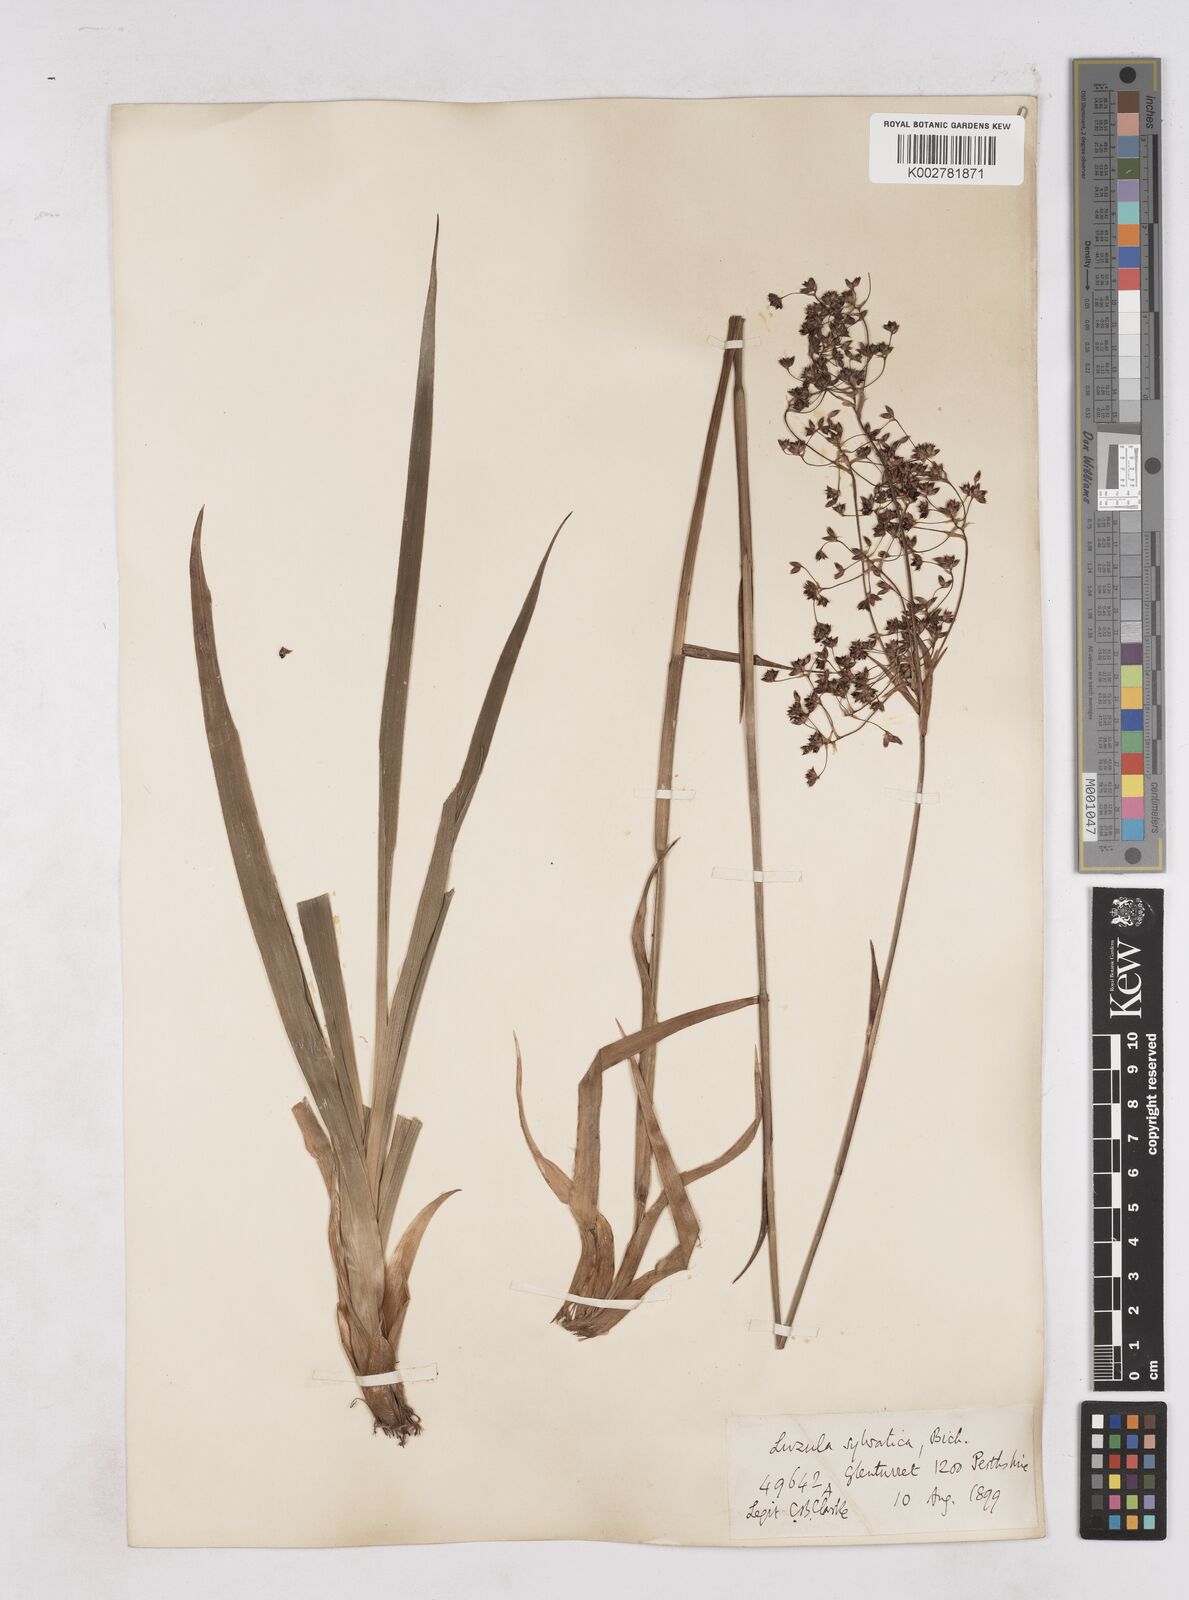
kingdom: Plantae
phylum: Tracheophyta
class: Liliopsida
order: Poales
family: Juncaceae
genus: Luzula
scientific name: Luzula sylvatica
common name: Great wood-rush
